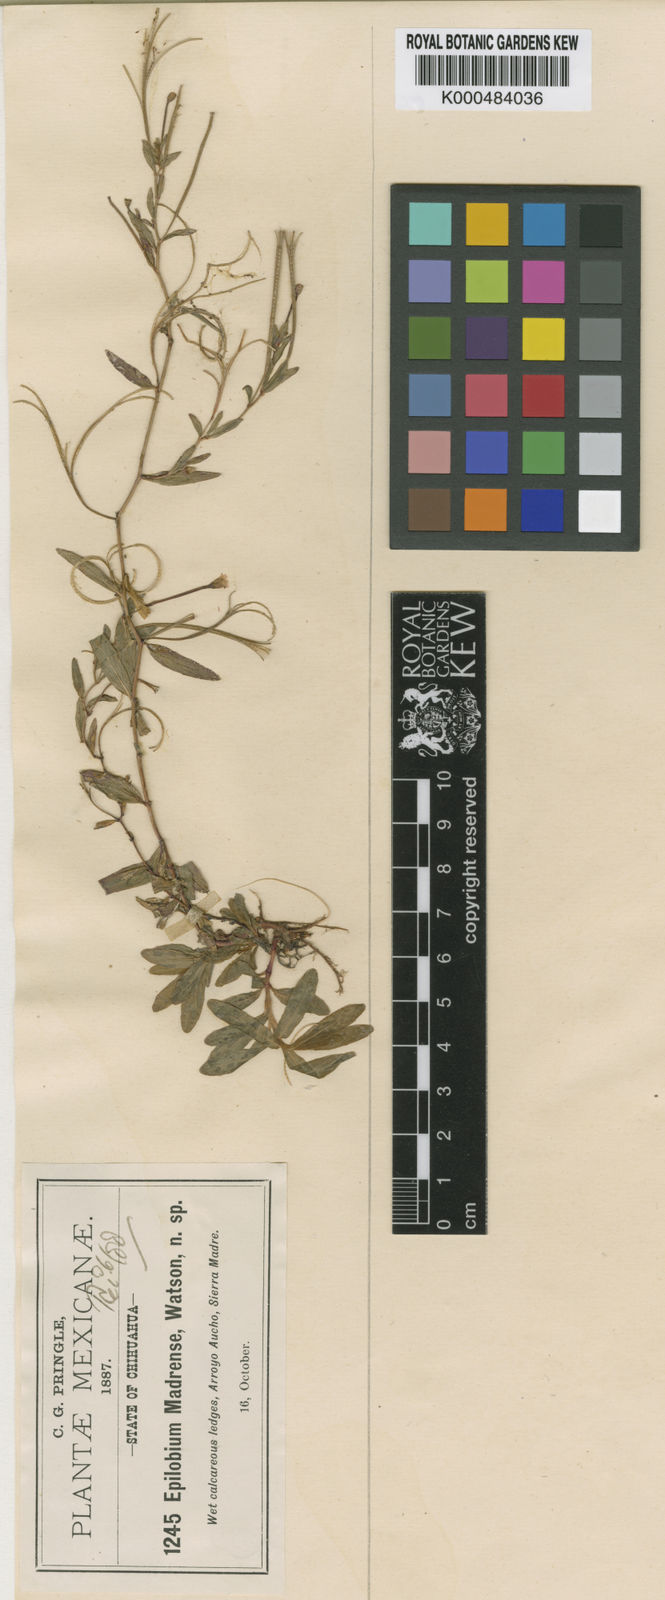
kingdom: Plantae
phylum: Tracheophyta
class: Magnoliopsida
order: Myrtales
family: Onagraceae
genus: Epilobium
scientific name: Epilobium glaberrimum
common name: Glaucous willowherb
